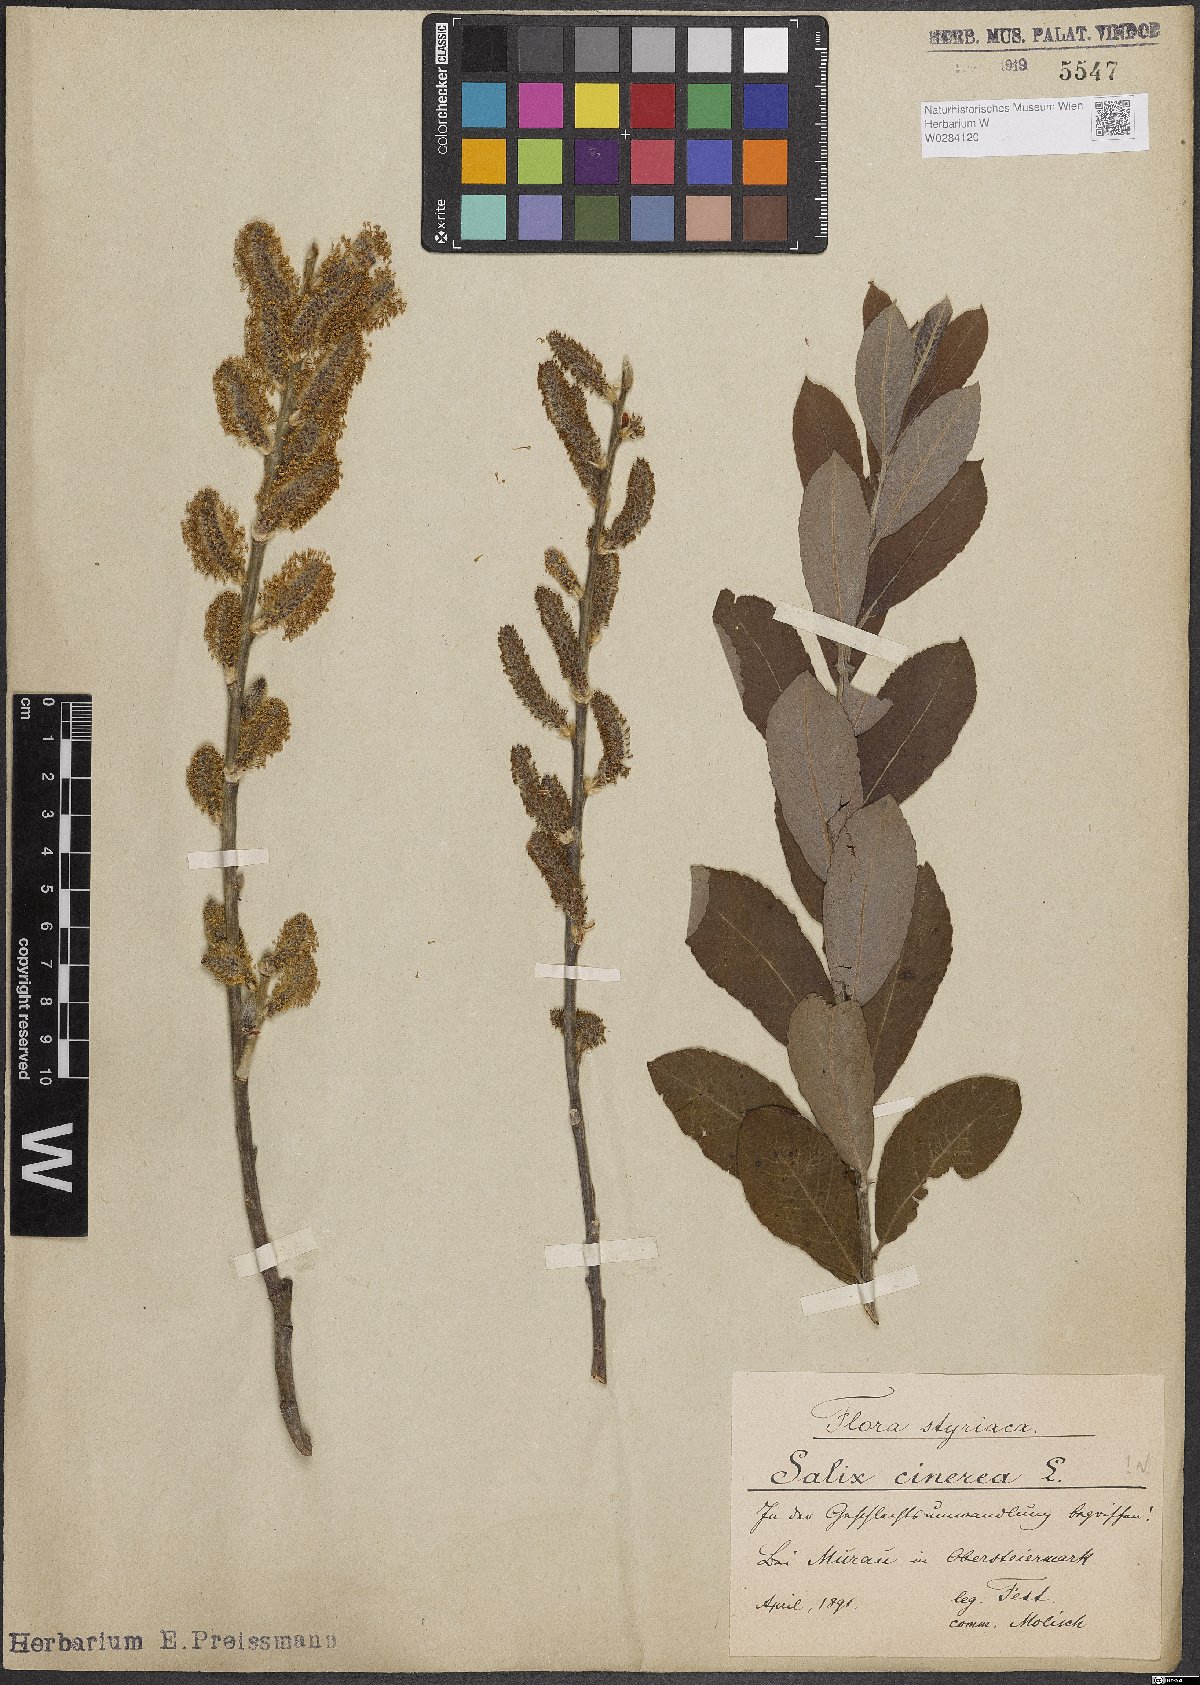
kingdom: Plantae
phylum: Tracheophyta
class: Magnoliopsida
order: Malpighiales
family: Salicaceae
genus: Salix
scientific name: Salix cinerea
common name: Common sallow
